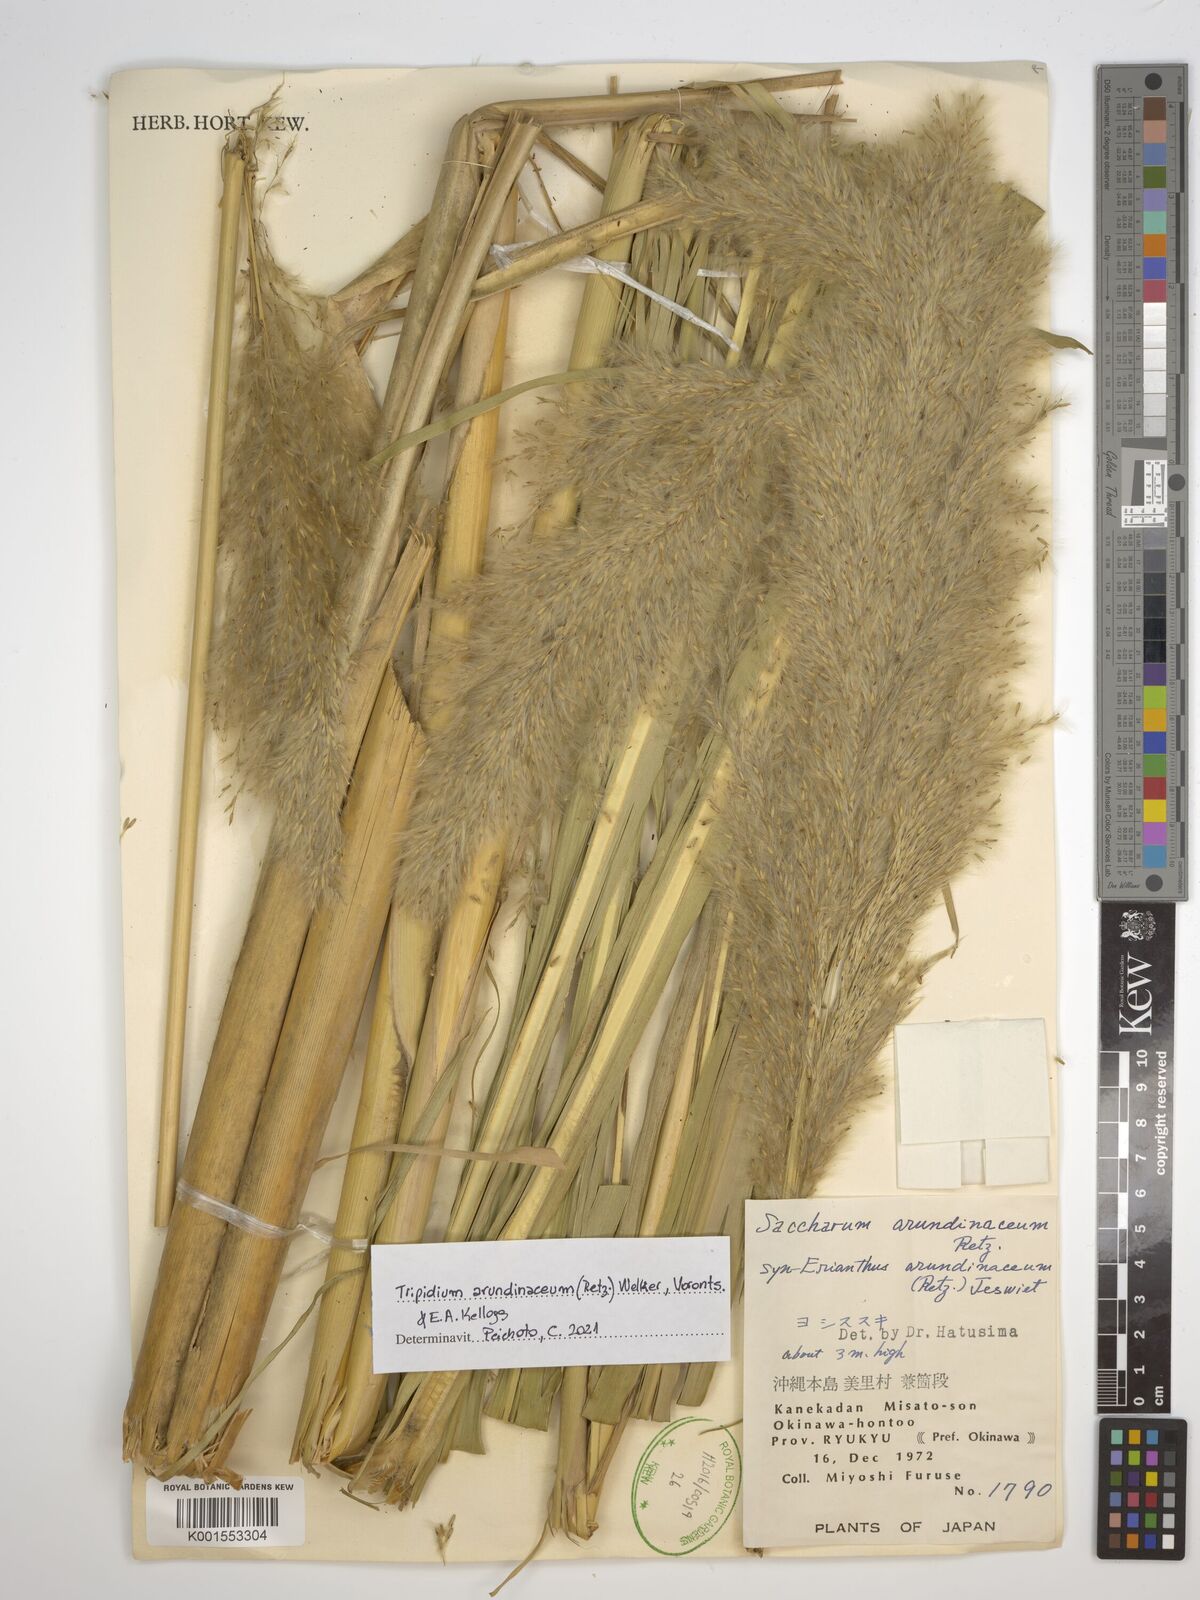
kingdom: Plantae
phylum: Tracheophyta
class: Liliopsida
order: Poales
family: Poaceae
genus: Tripidium
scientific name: Tripidium arundinaceum
